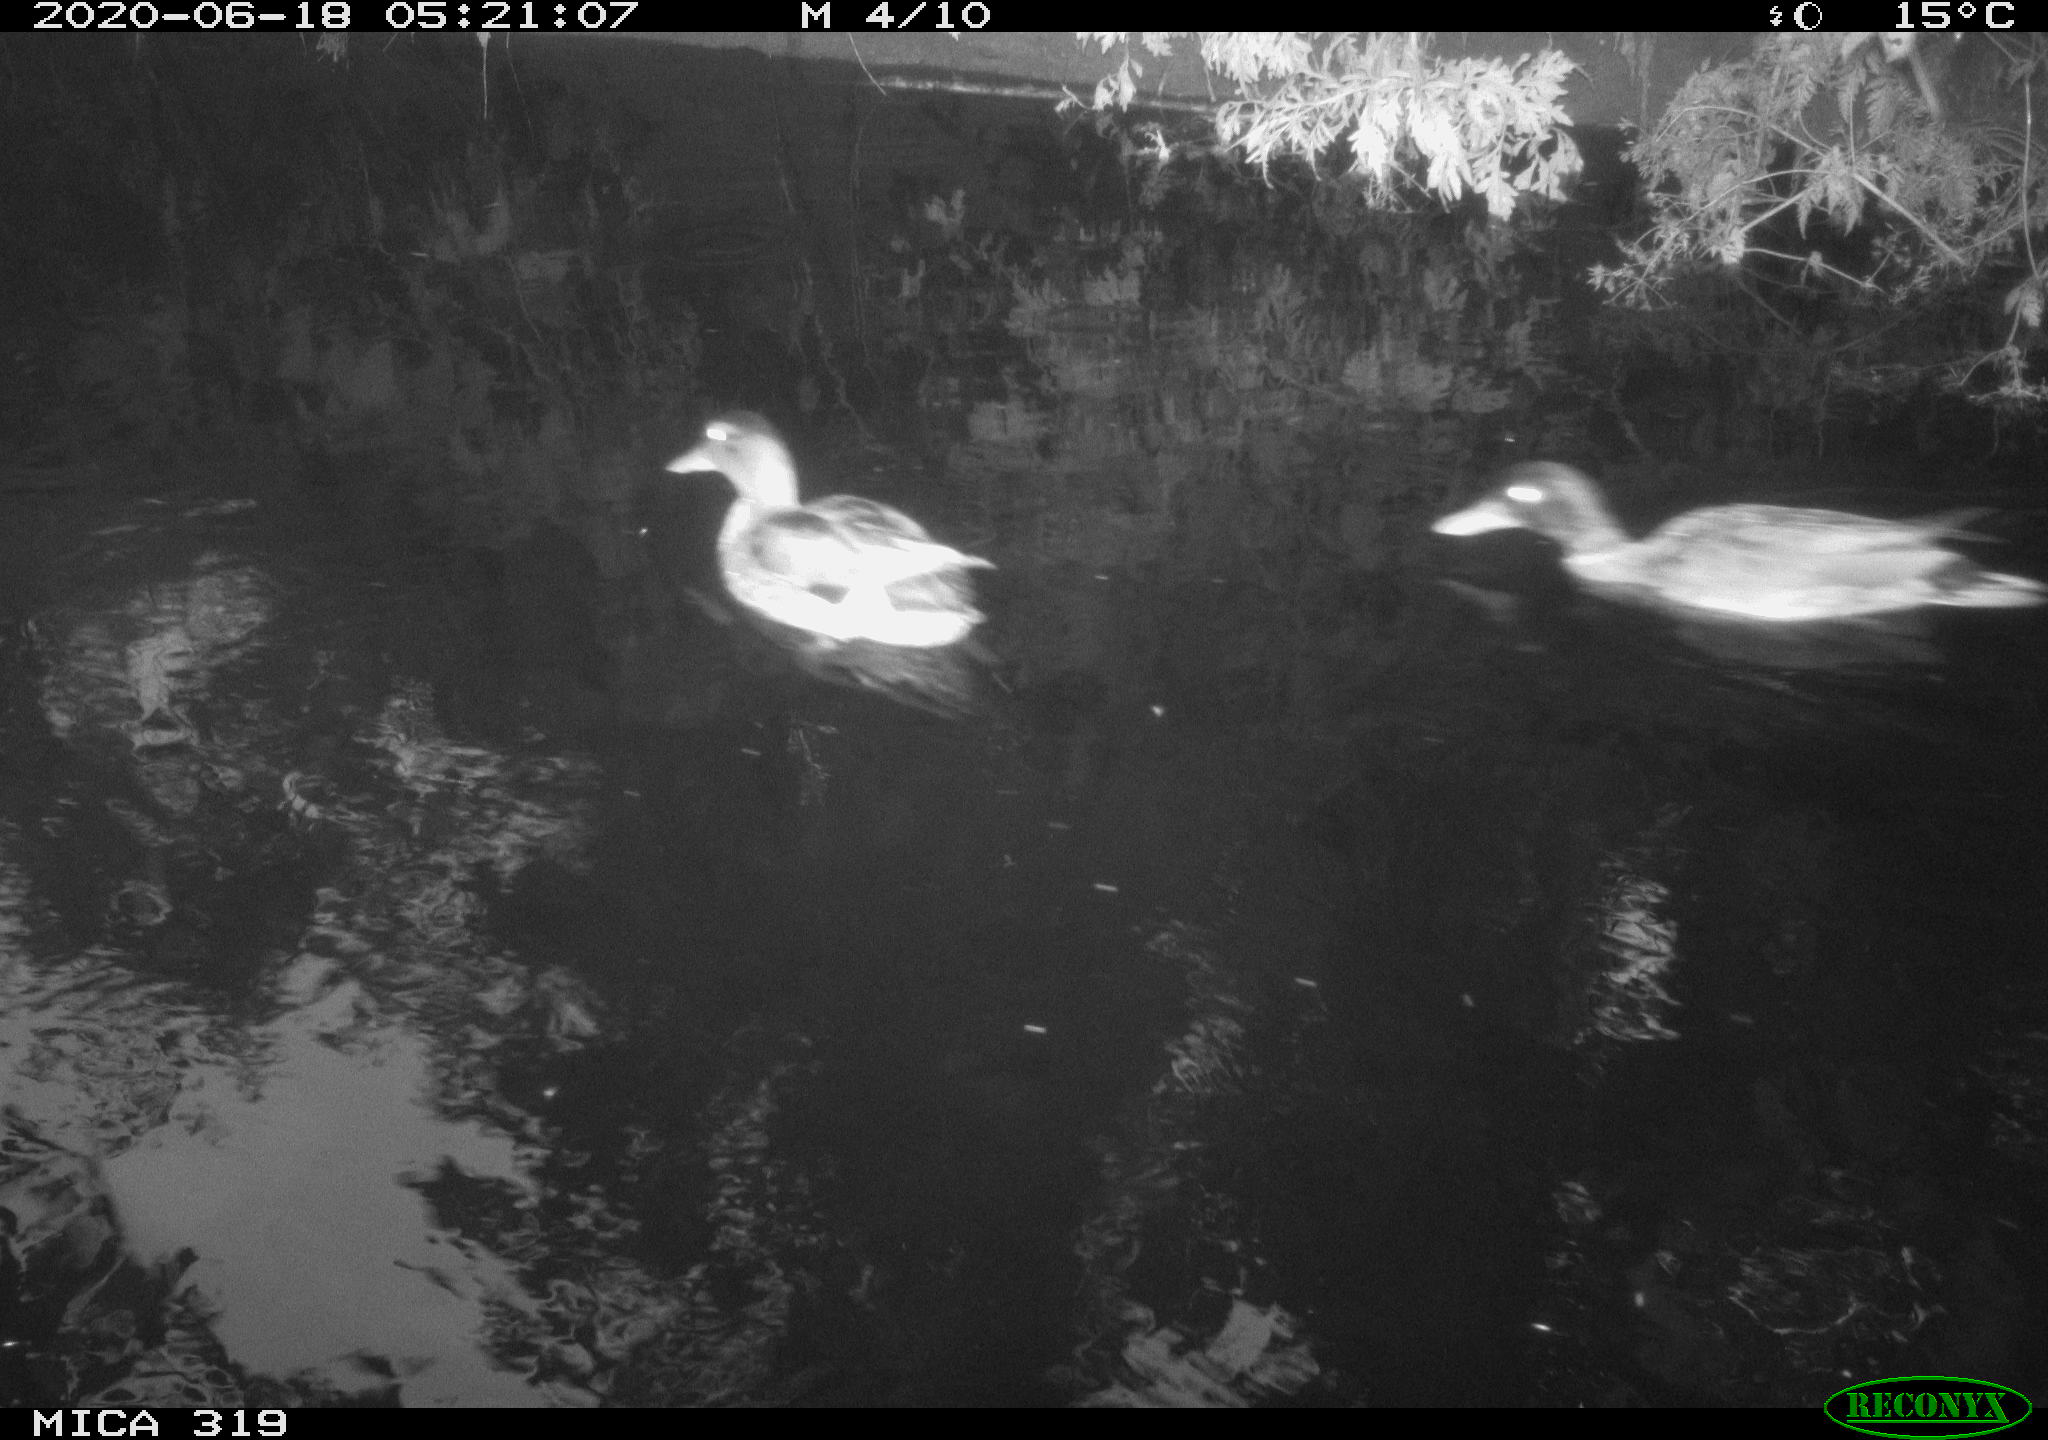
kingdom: Animalia
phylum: Chordata
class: Aves
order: Anseriformes
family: Anatidae
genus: Anas
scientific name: Anas platyrhynchos
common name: Mallard
